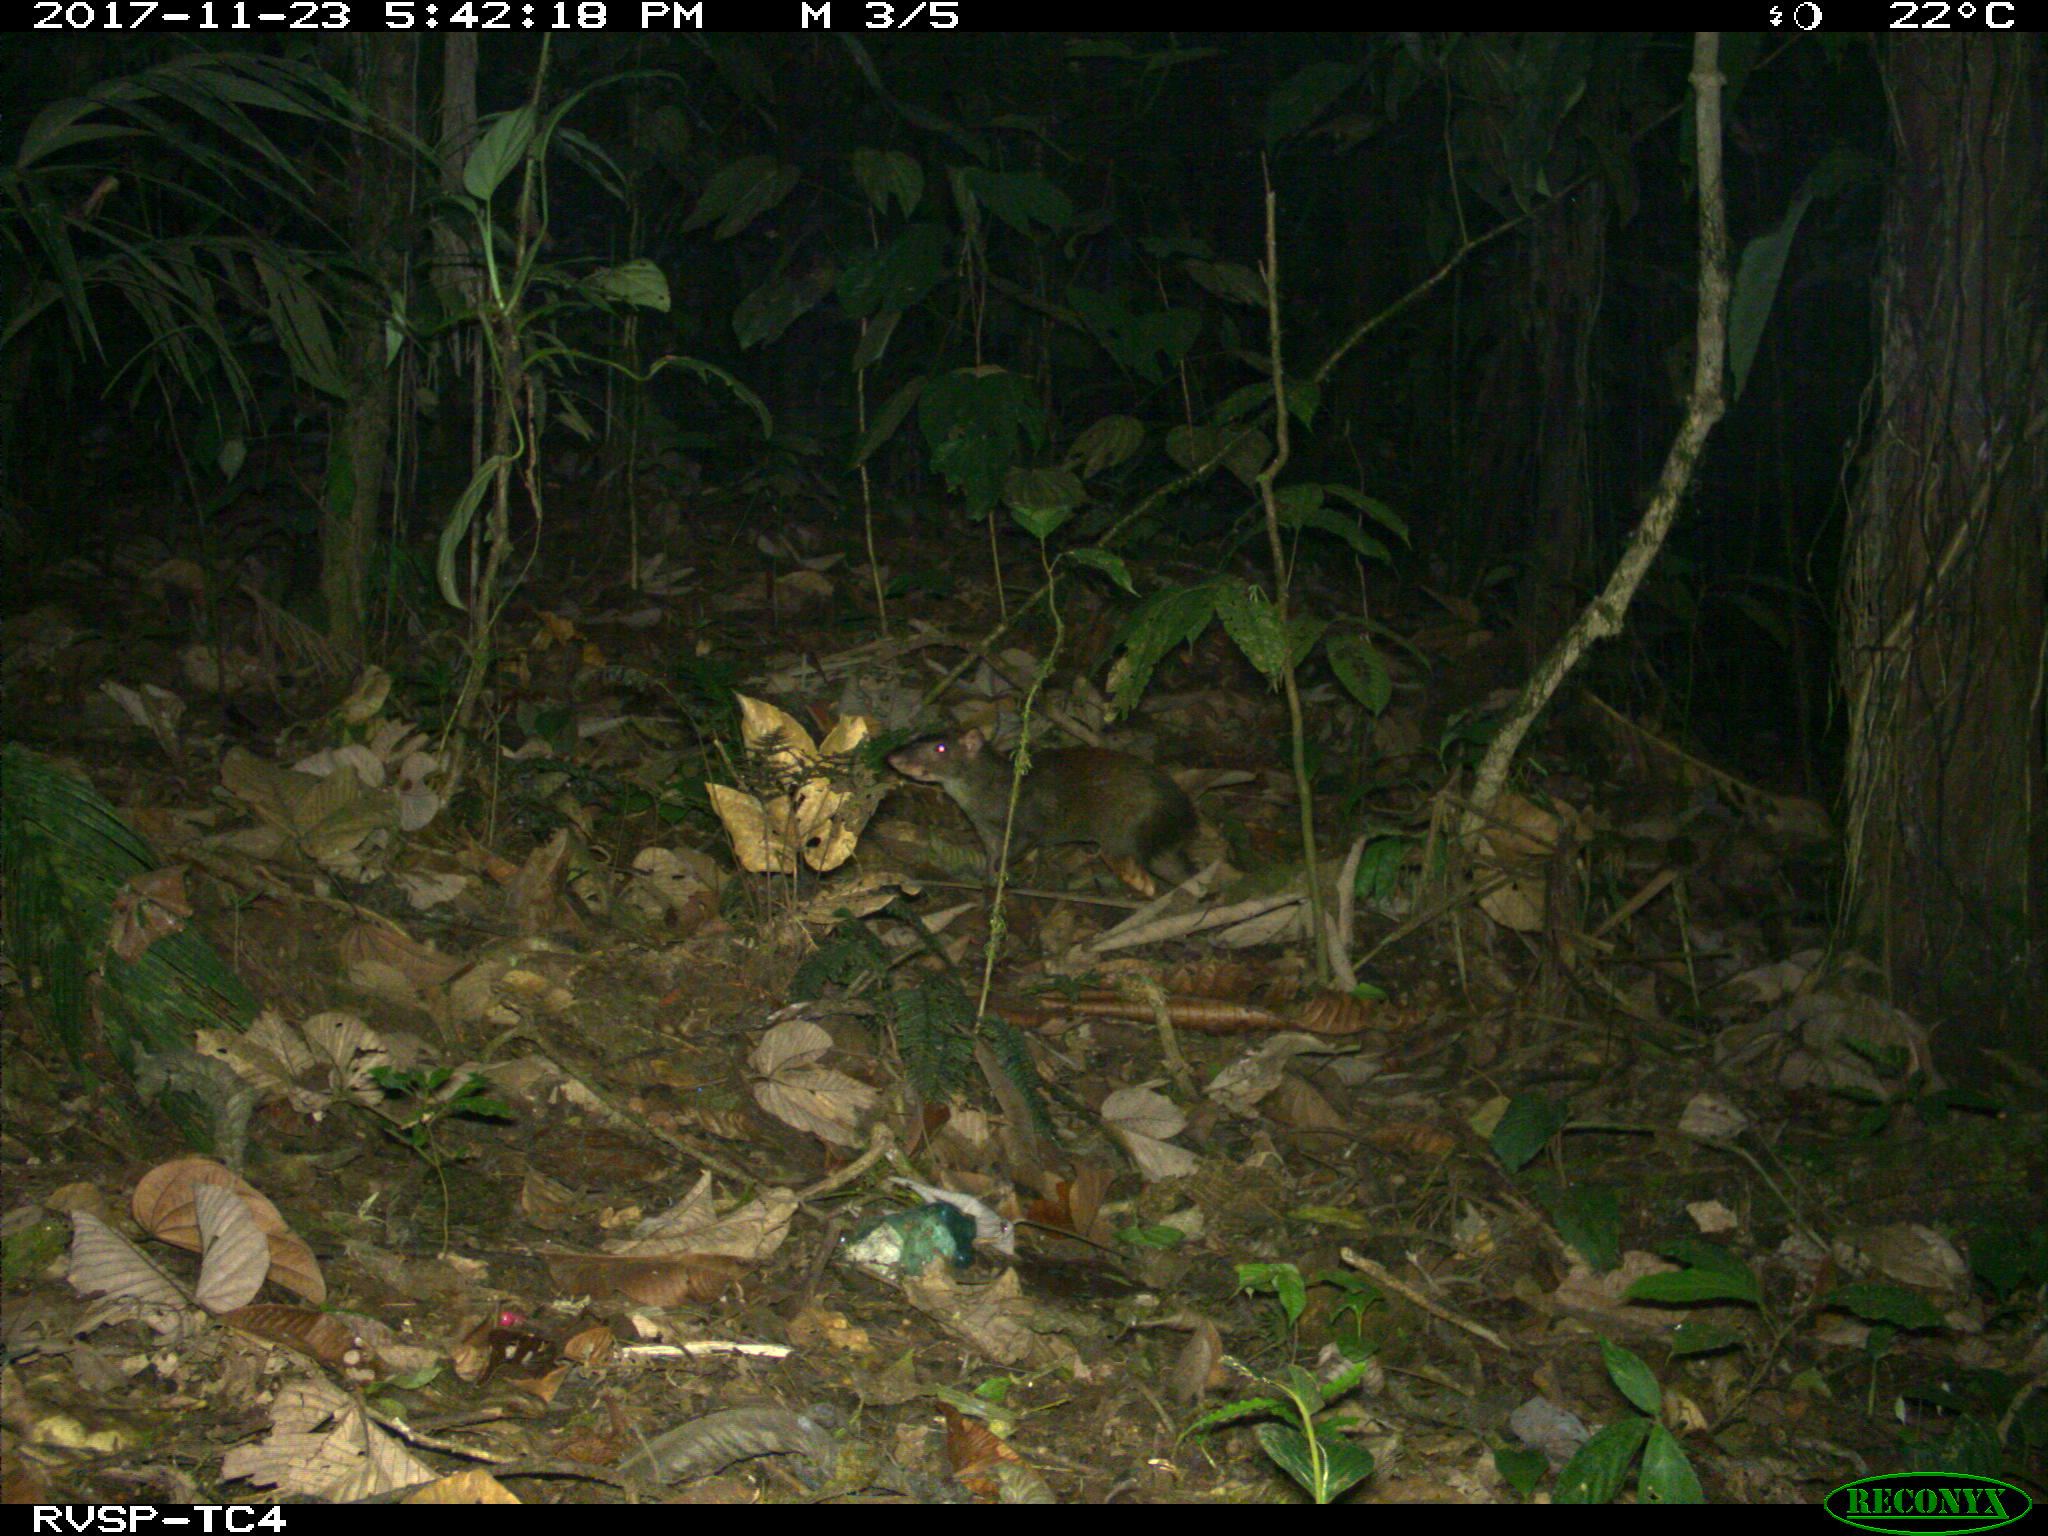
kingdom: Animalia
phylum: Chordata
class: Mammalia
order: Rodentia
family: Dasyproctidae
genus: Dasyprocta
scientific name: Dasyprocta punctata
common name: Central american agouti
